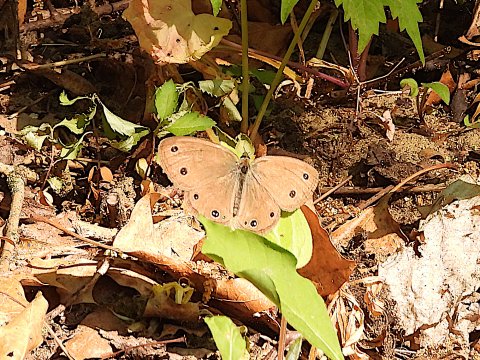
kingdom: Animalia
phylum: Arthropoda
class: Insecta
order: Lepidoptera
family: Nymphalidae
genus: Euptychia
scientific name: Euptychia cymela
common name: Little Wood Satyr
